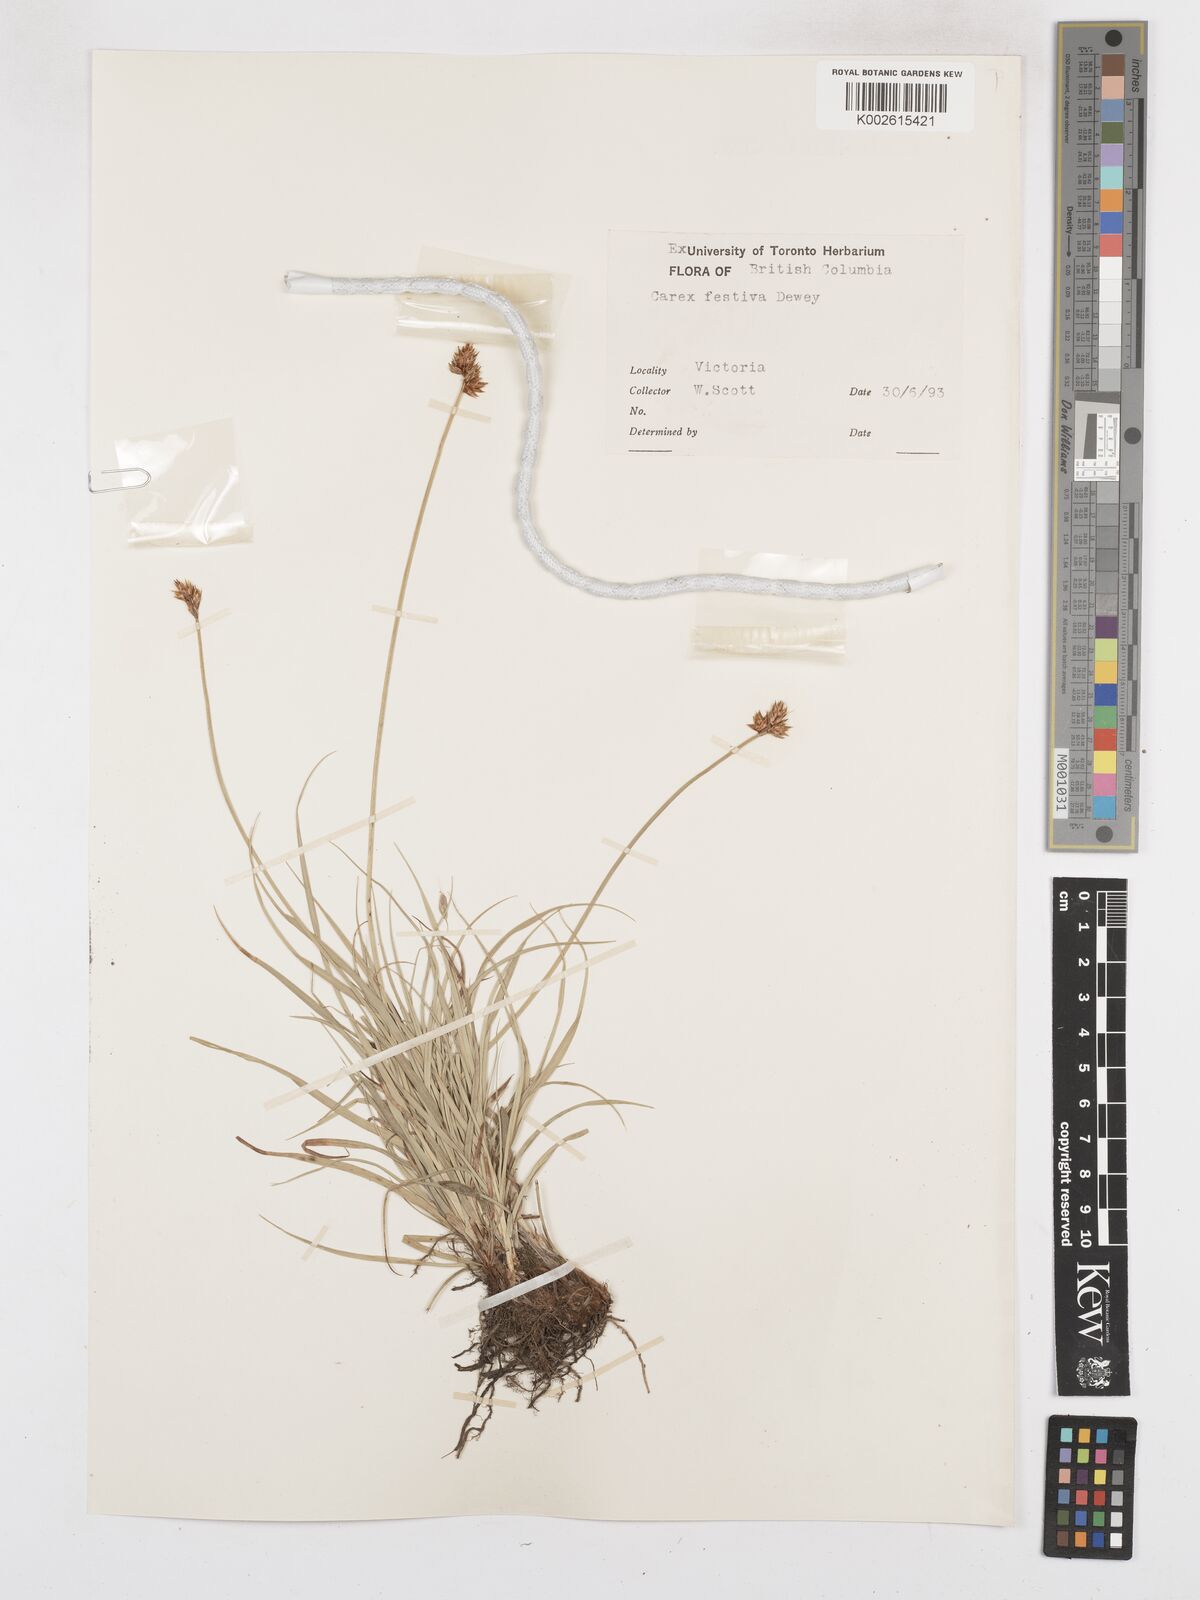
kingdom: Plantae
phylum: Tracheophyta
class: Liliopsida
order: Poales
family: Cyperaceae
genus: Carex
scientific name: Carex microptera
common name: Oval-headed sedge
